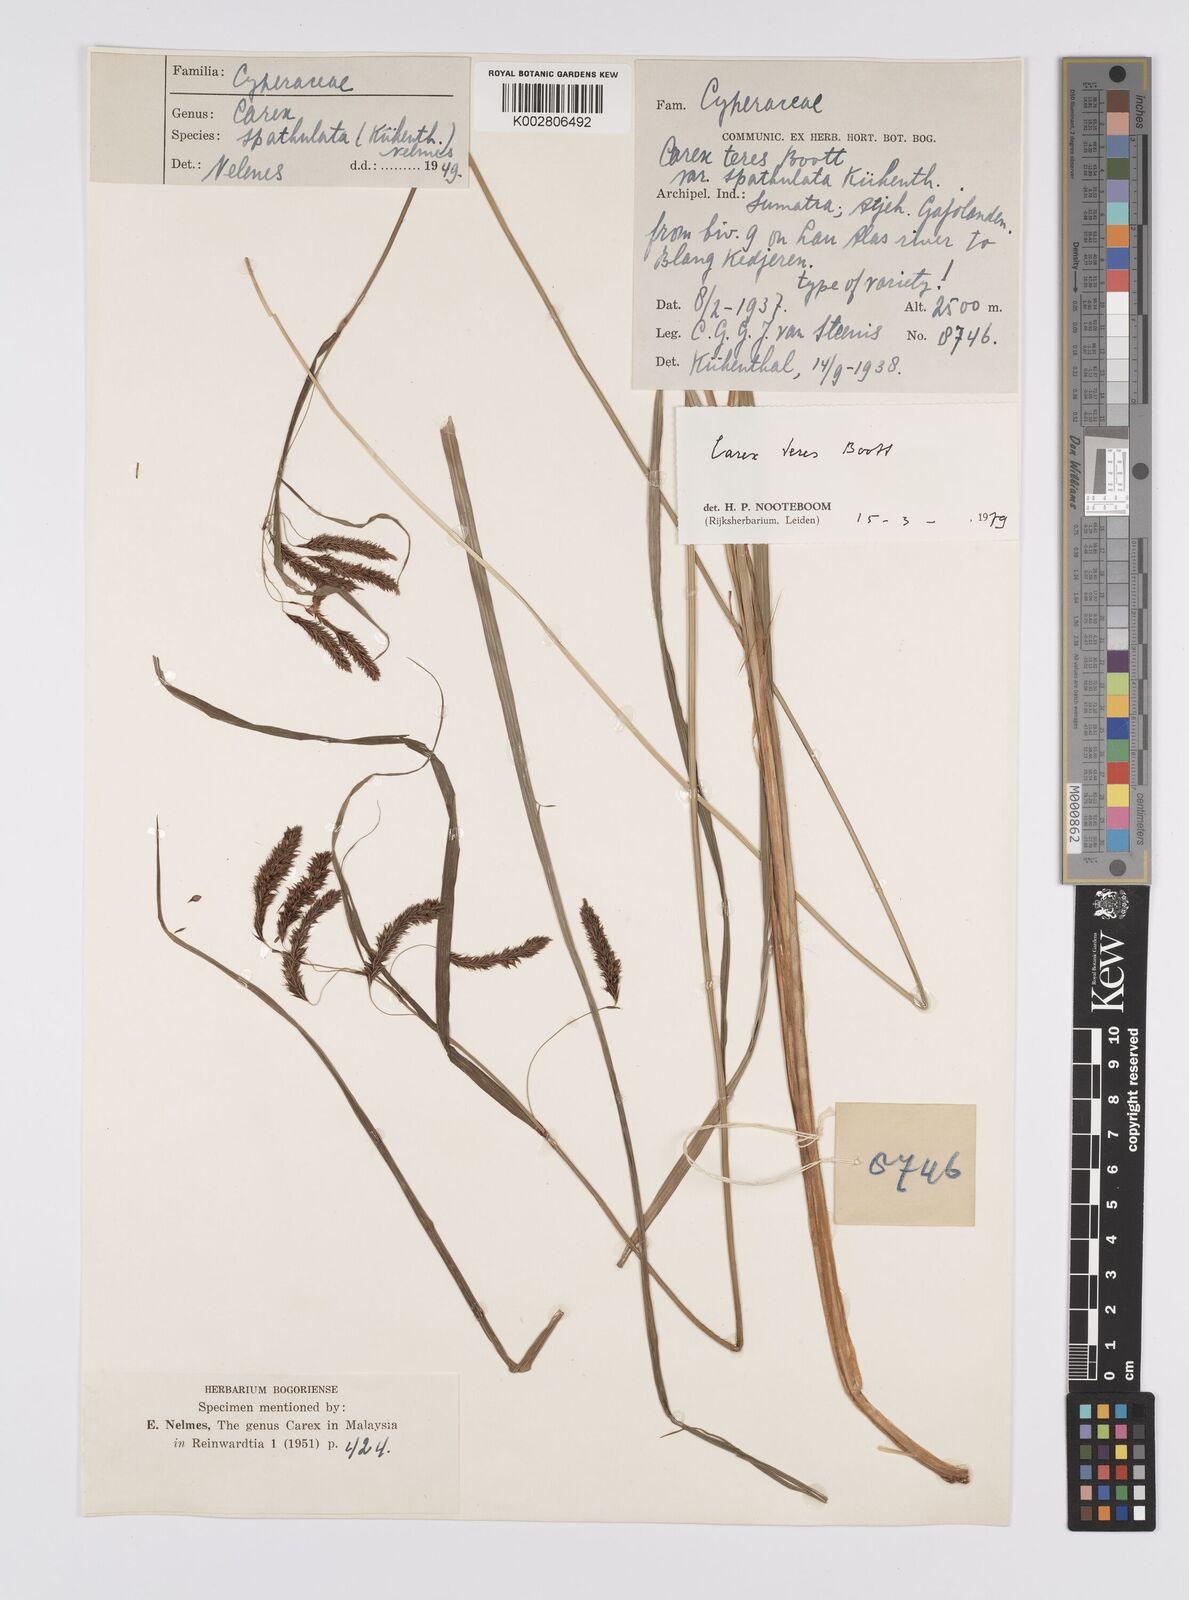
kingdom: Plantae
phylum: Tracheophyta
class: Liliopsida
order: Poales
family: Cyperaceae
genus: Carex
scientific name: Carex teres
